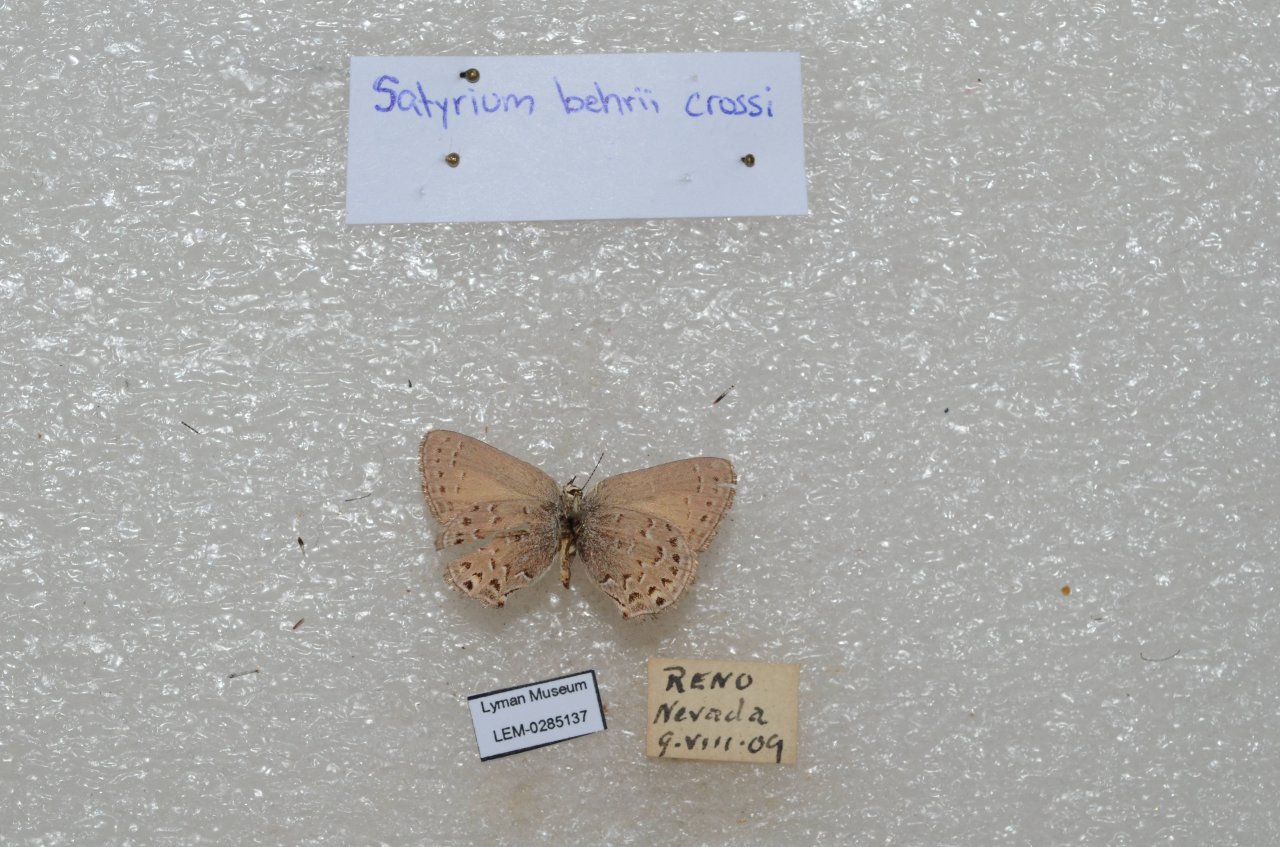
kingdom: Animalia
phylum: Arthropoda
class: Insecta
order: Lepidoptera
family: Lycaenidae
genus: Satyrium
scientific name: Satyrium behrii
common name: Behr's Hairstreak
